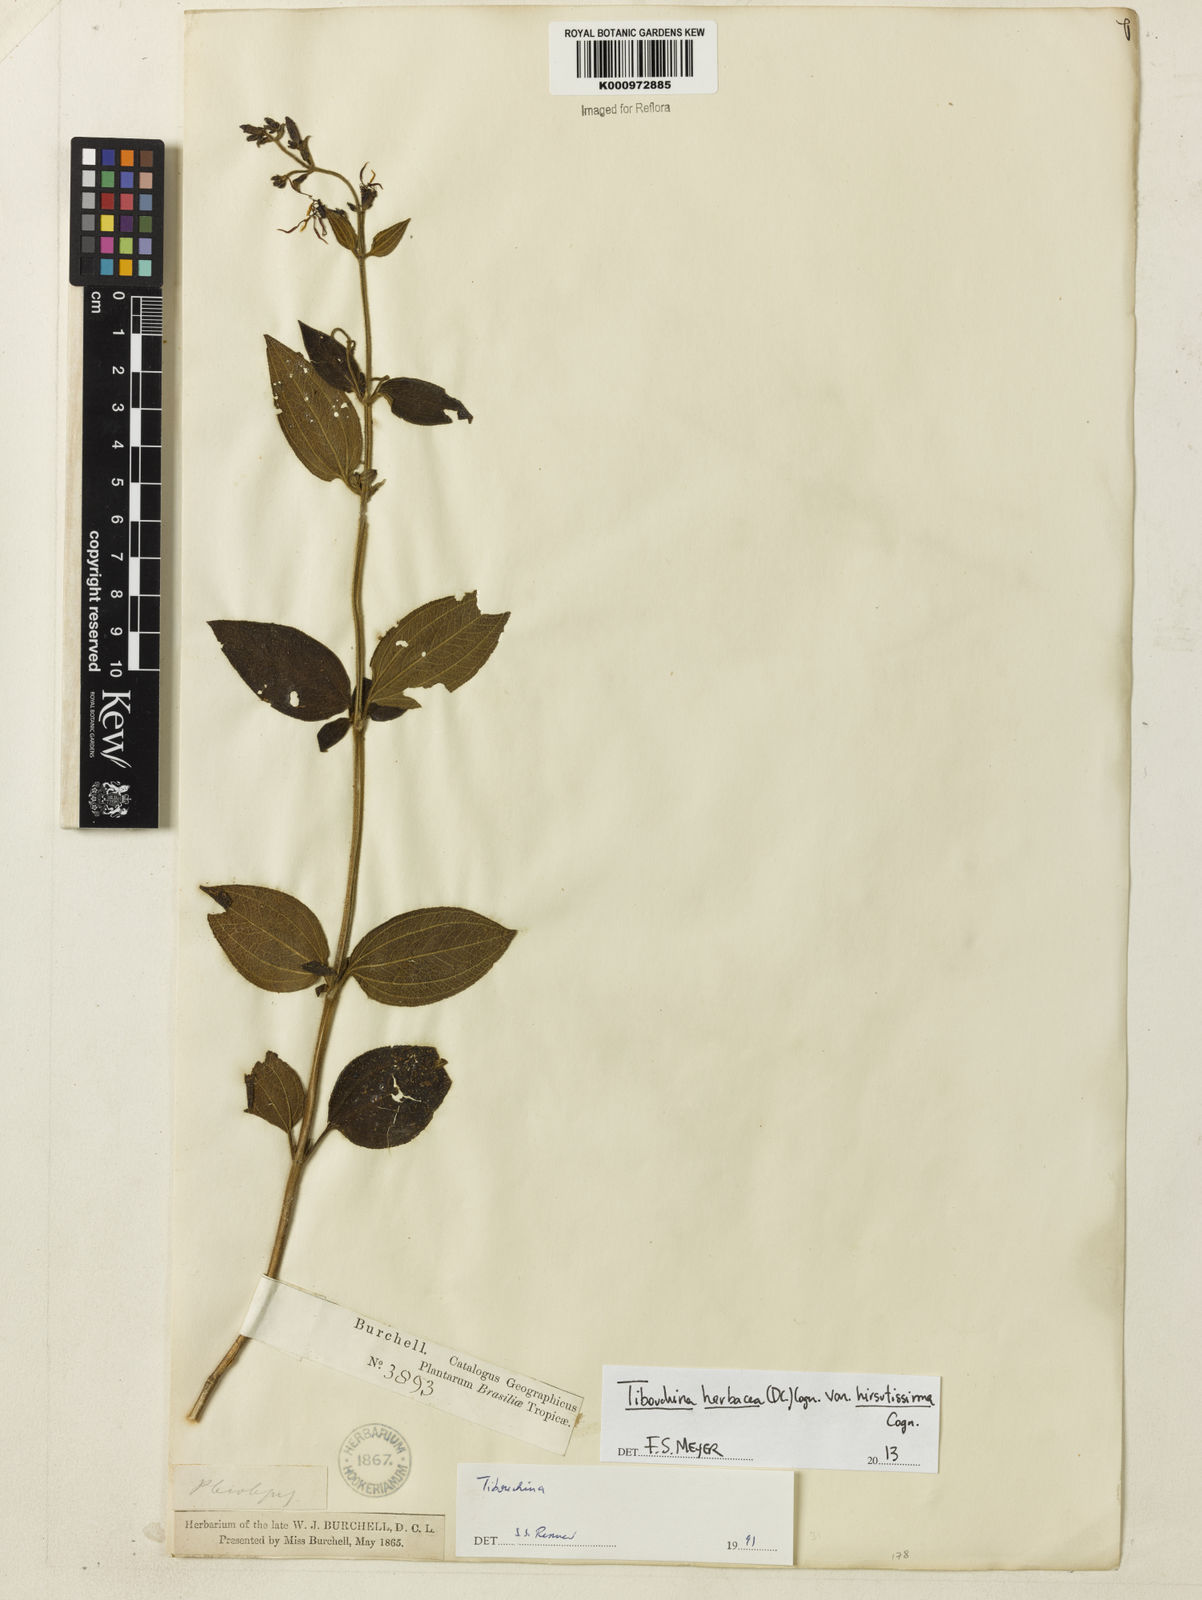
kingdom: Plantae
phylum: Tracheophyta
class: Magnoliopsida
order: Myrtales
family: Melastomataceae
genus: Chaetogastra
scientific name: Chaetogastra herbacea
